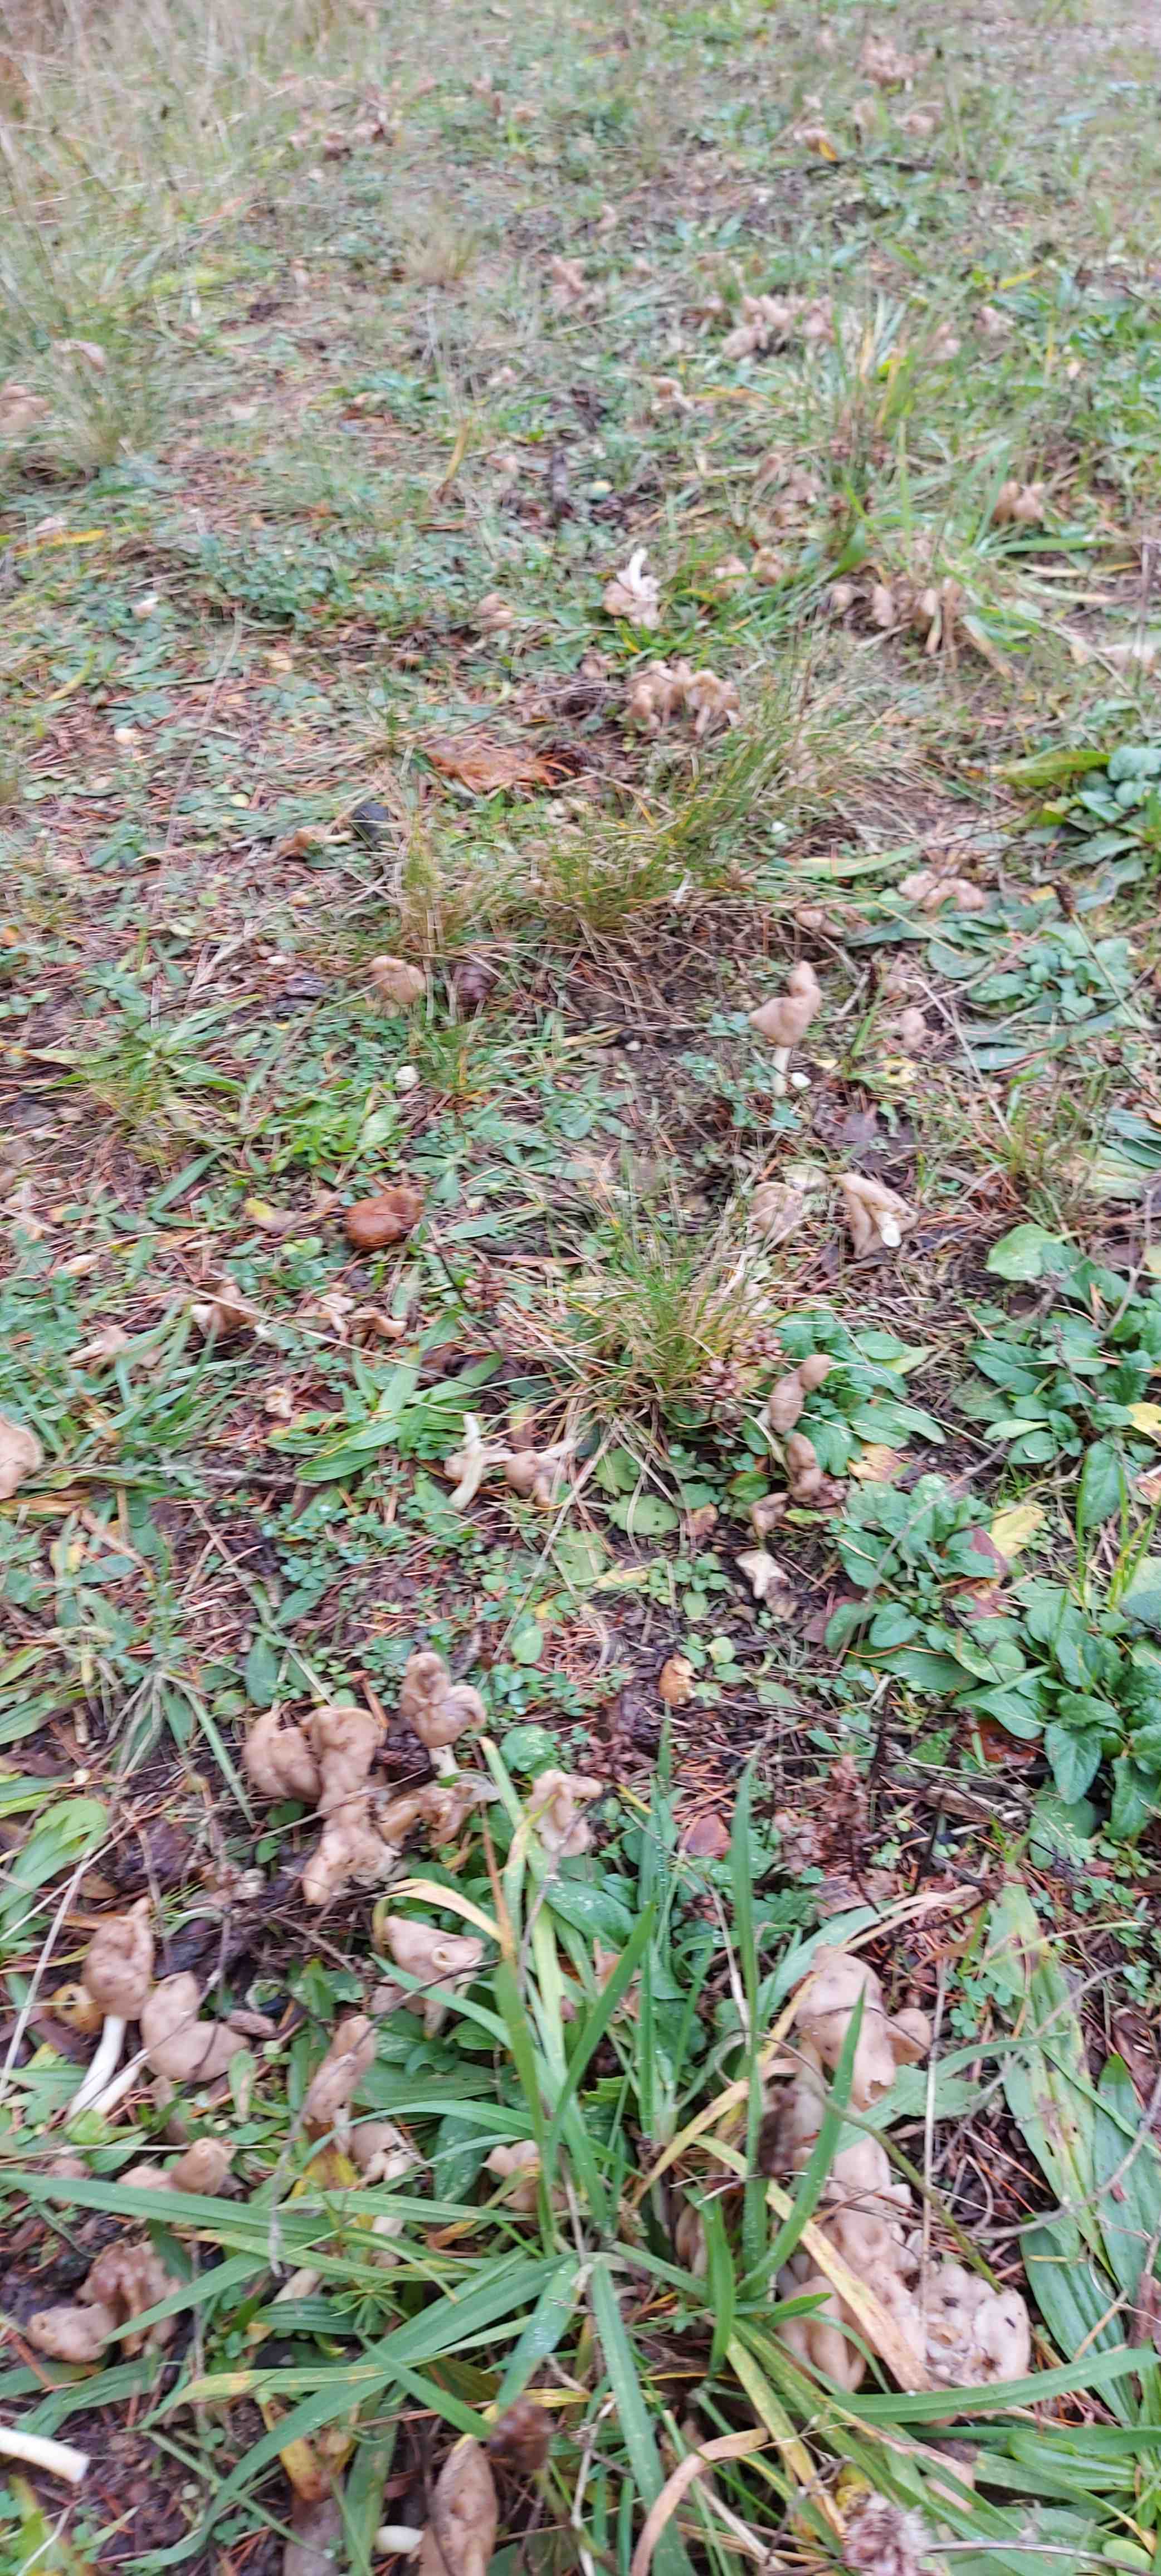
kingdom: Fungi
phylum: Ascomycota
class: Pezizomycetes
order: Pezizales
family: Helvellaceae
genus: Helvella
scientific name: Helvella elastica
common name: elastik-foldhat
